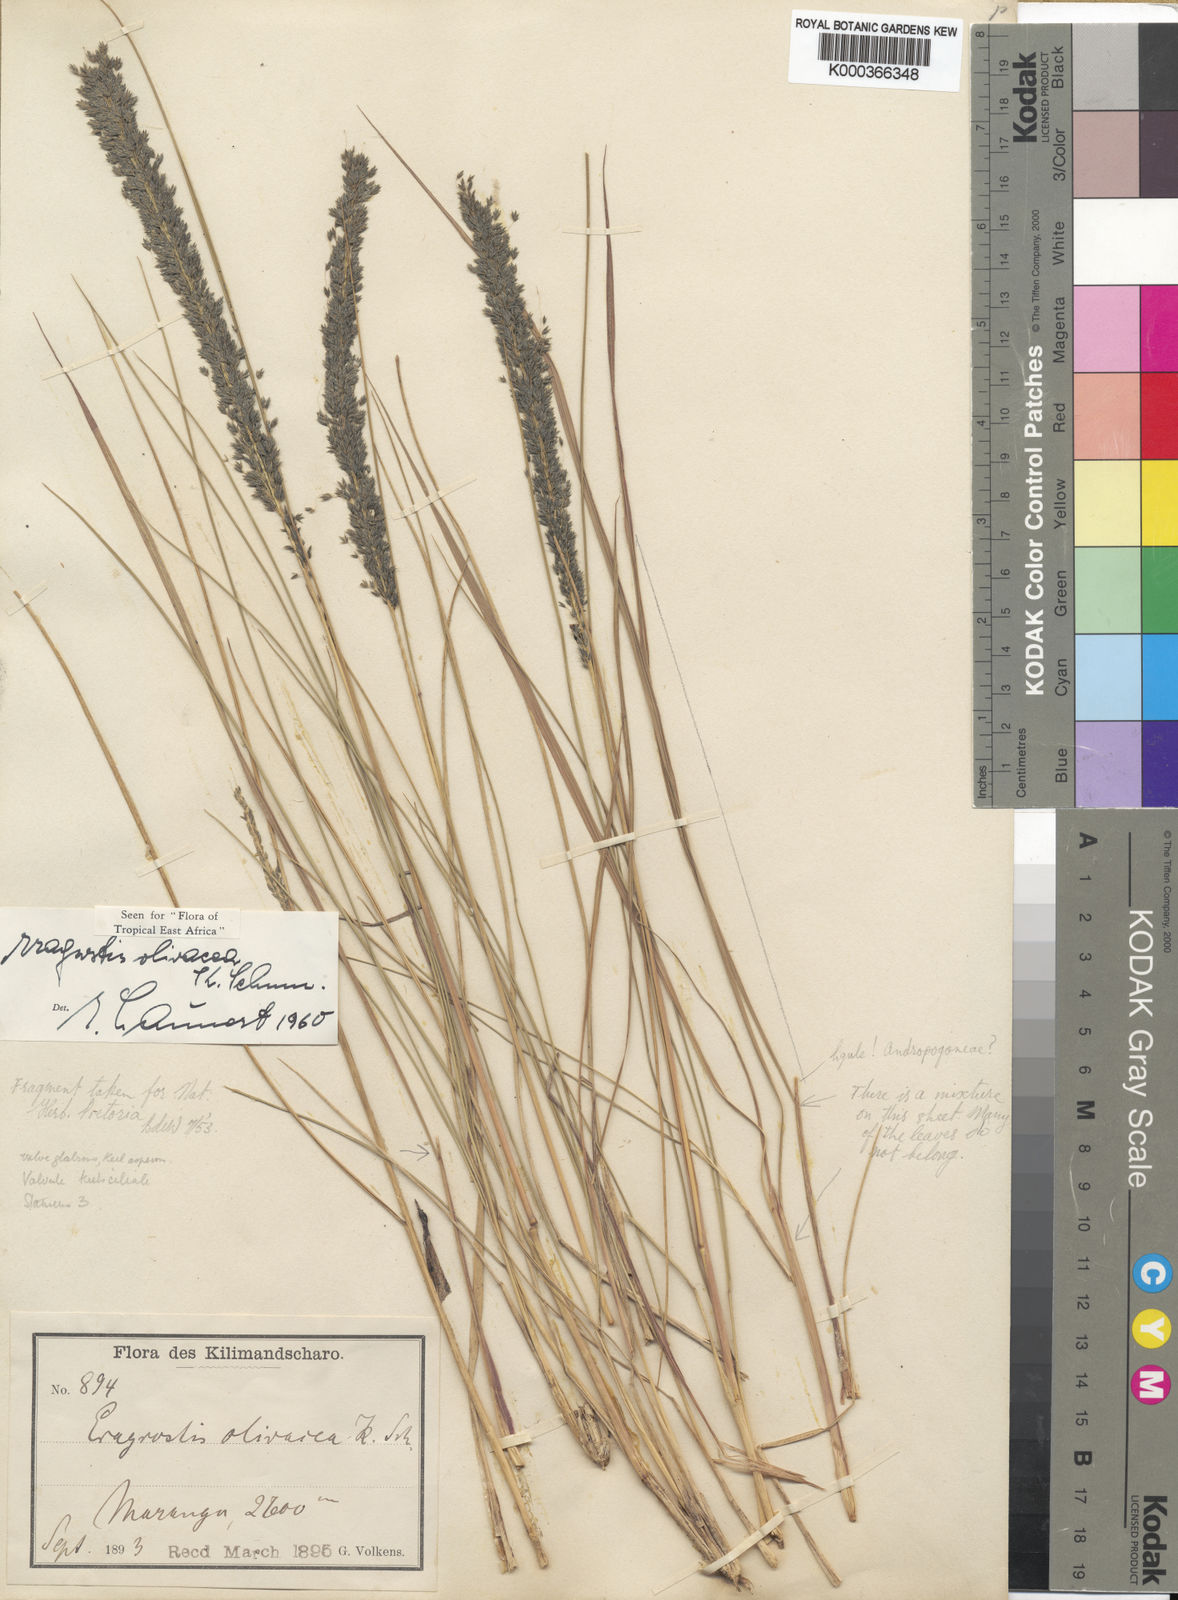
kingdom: Plantae
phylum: Tracheophyta
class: Liliopsida
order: Poales
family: Poaceae
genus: Eragrostis
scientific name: Eragrostis olivacea
